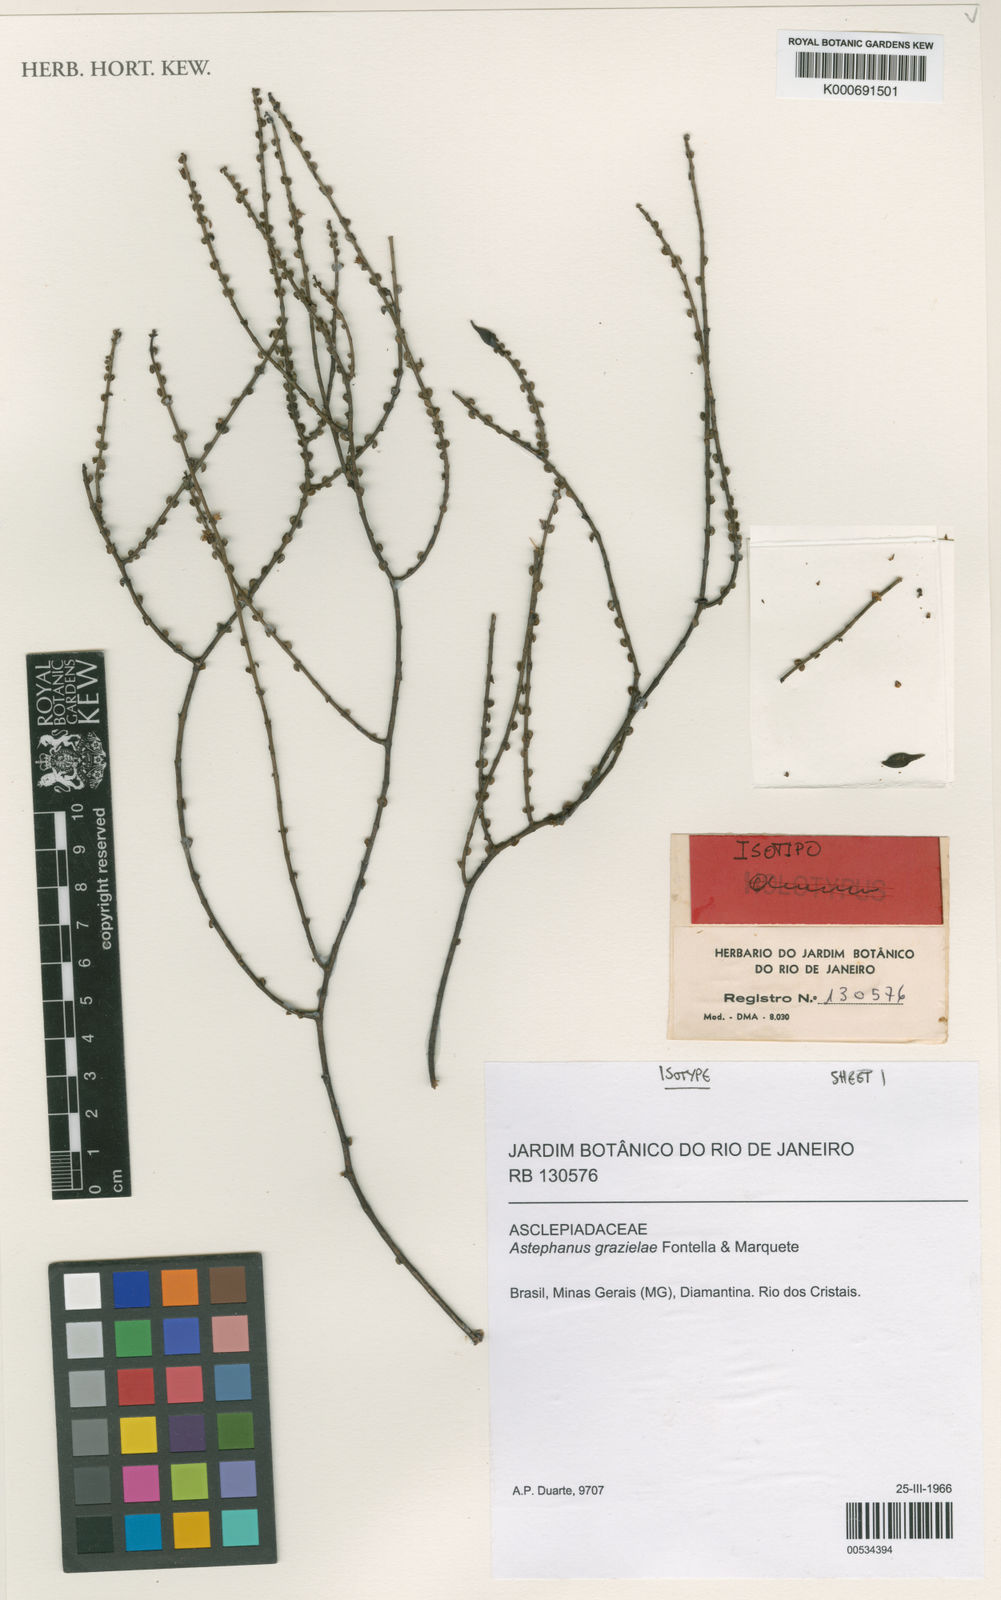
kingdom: Plantae
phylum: Tracheophyta
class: Magnoliopsida
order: Gentianales
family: Apocynaceae
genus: Minaria
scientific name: Minaria grazielae
